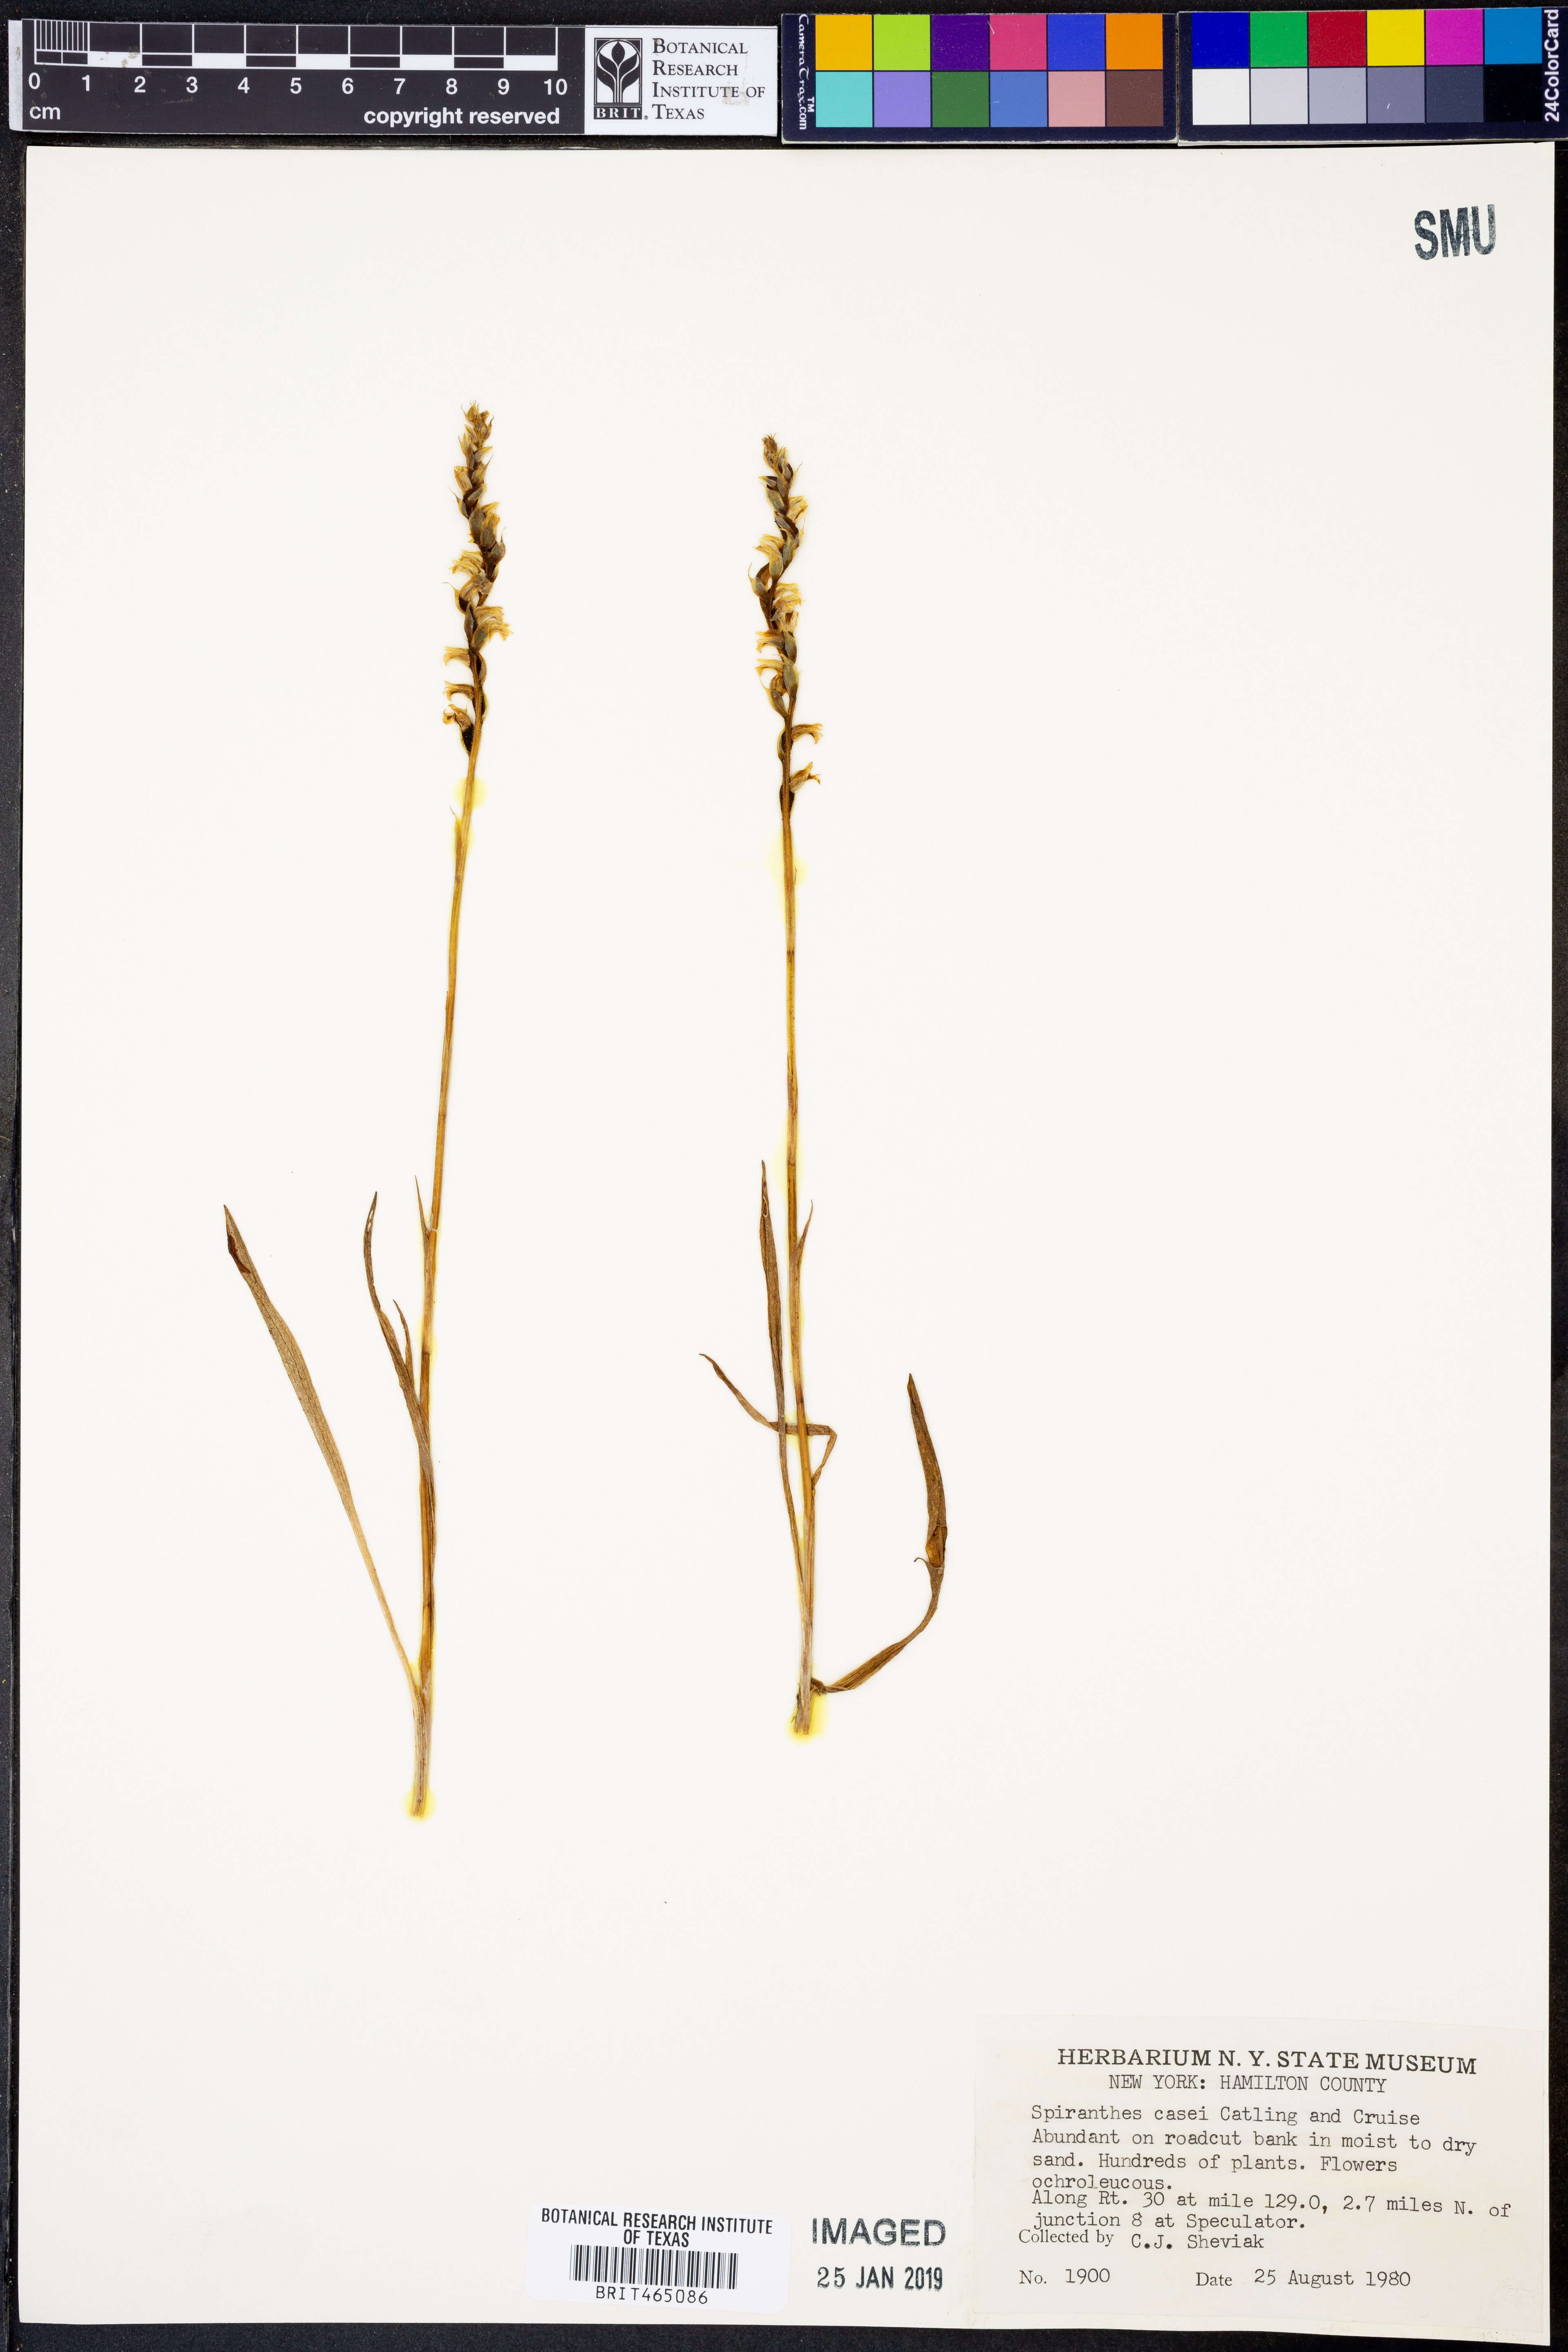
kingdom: Plantae
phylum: Tracheophyta
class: Liliopsida
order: Asparagales
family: Orchidaceae
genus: Spiranthes
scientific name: Spiranthes casei
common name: Case's ladies'-tresses
